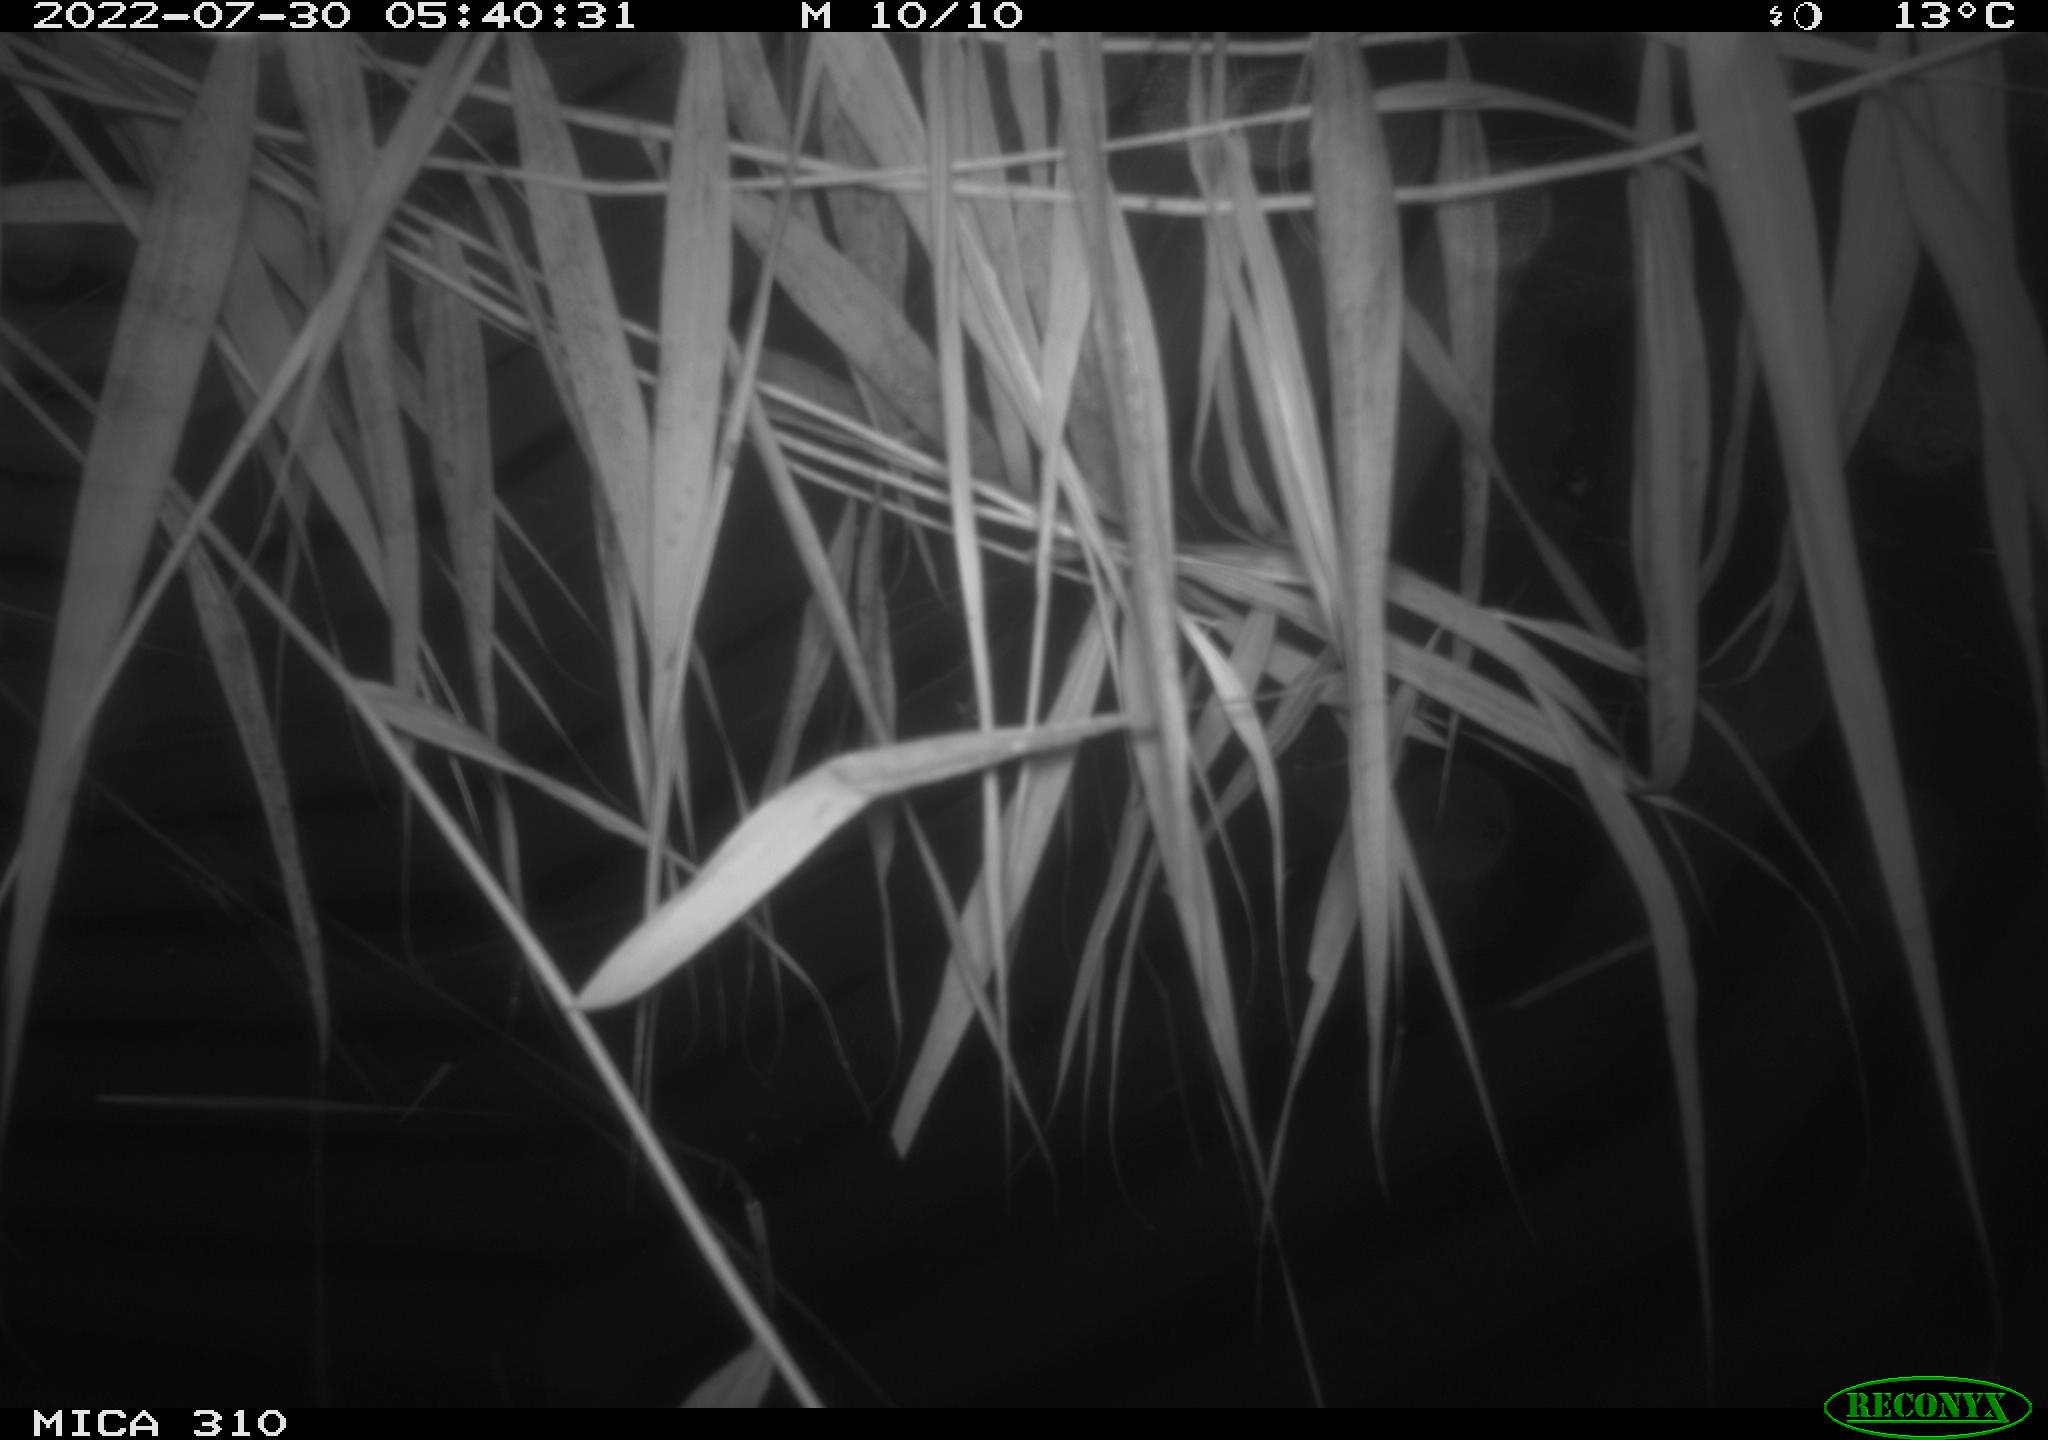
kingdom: Animalia
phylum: Chordata
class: Aves
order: Anseriformes
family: Anatidae
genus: Anas
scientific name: Anas platyrhynchos
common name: Mallard
